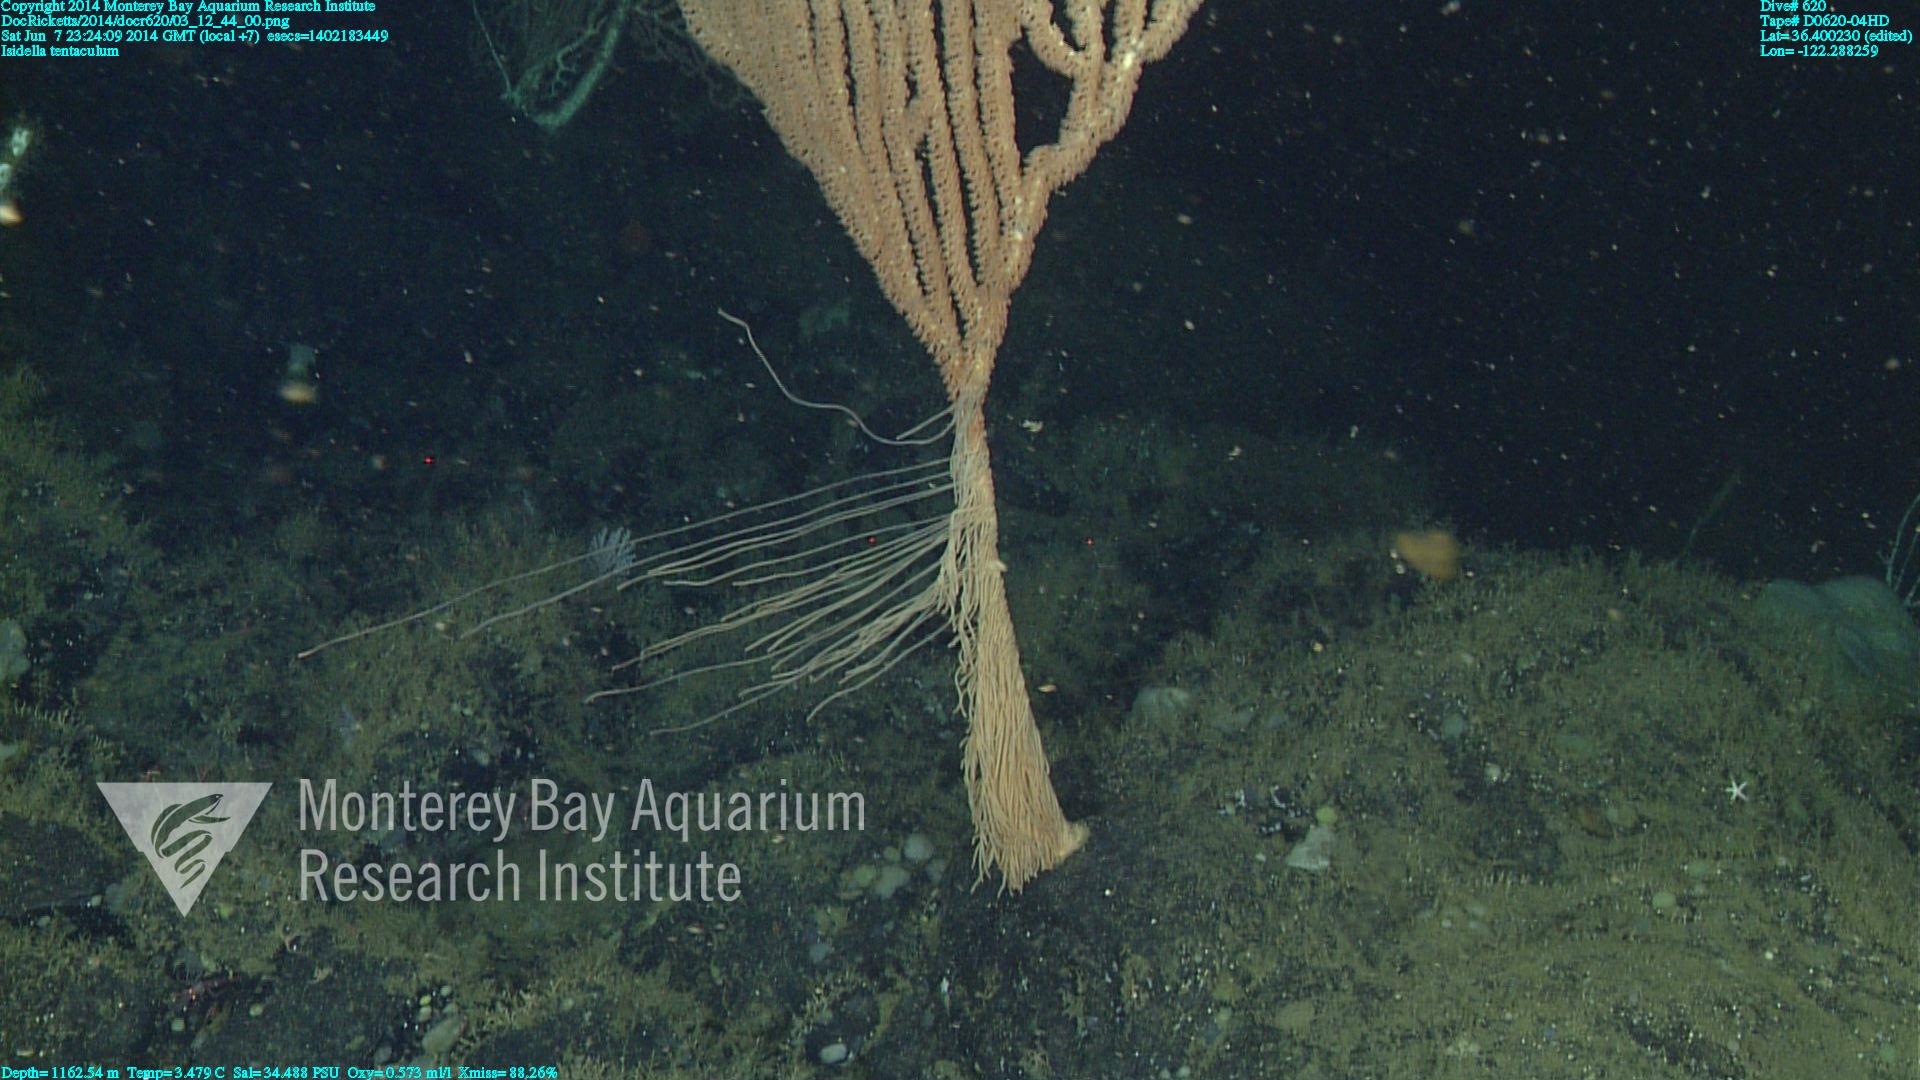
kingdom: Animalia
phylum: Cnidaria
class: Anthozoa
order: Scleralcyonacea
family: Keratoisididae
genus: Isidella
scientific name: Isidella tentaculum
